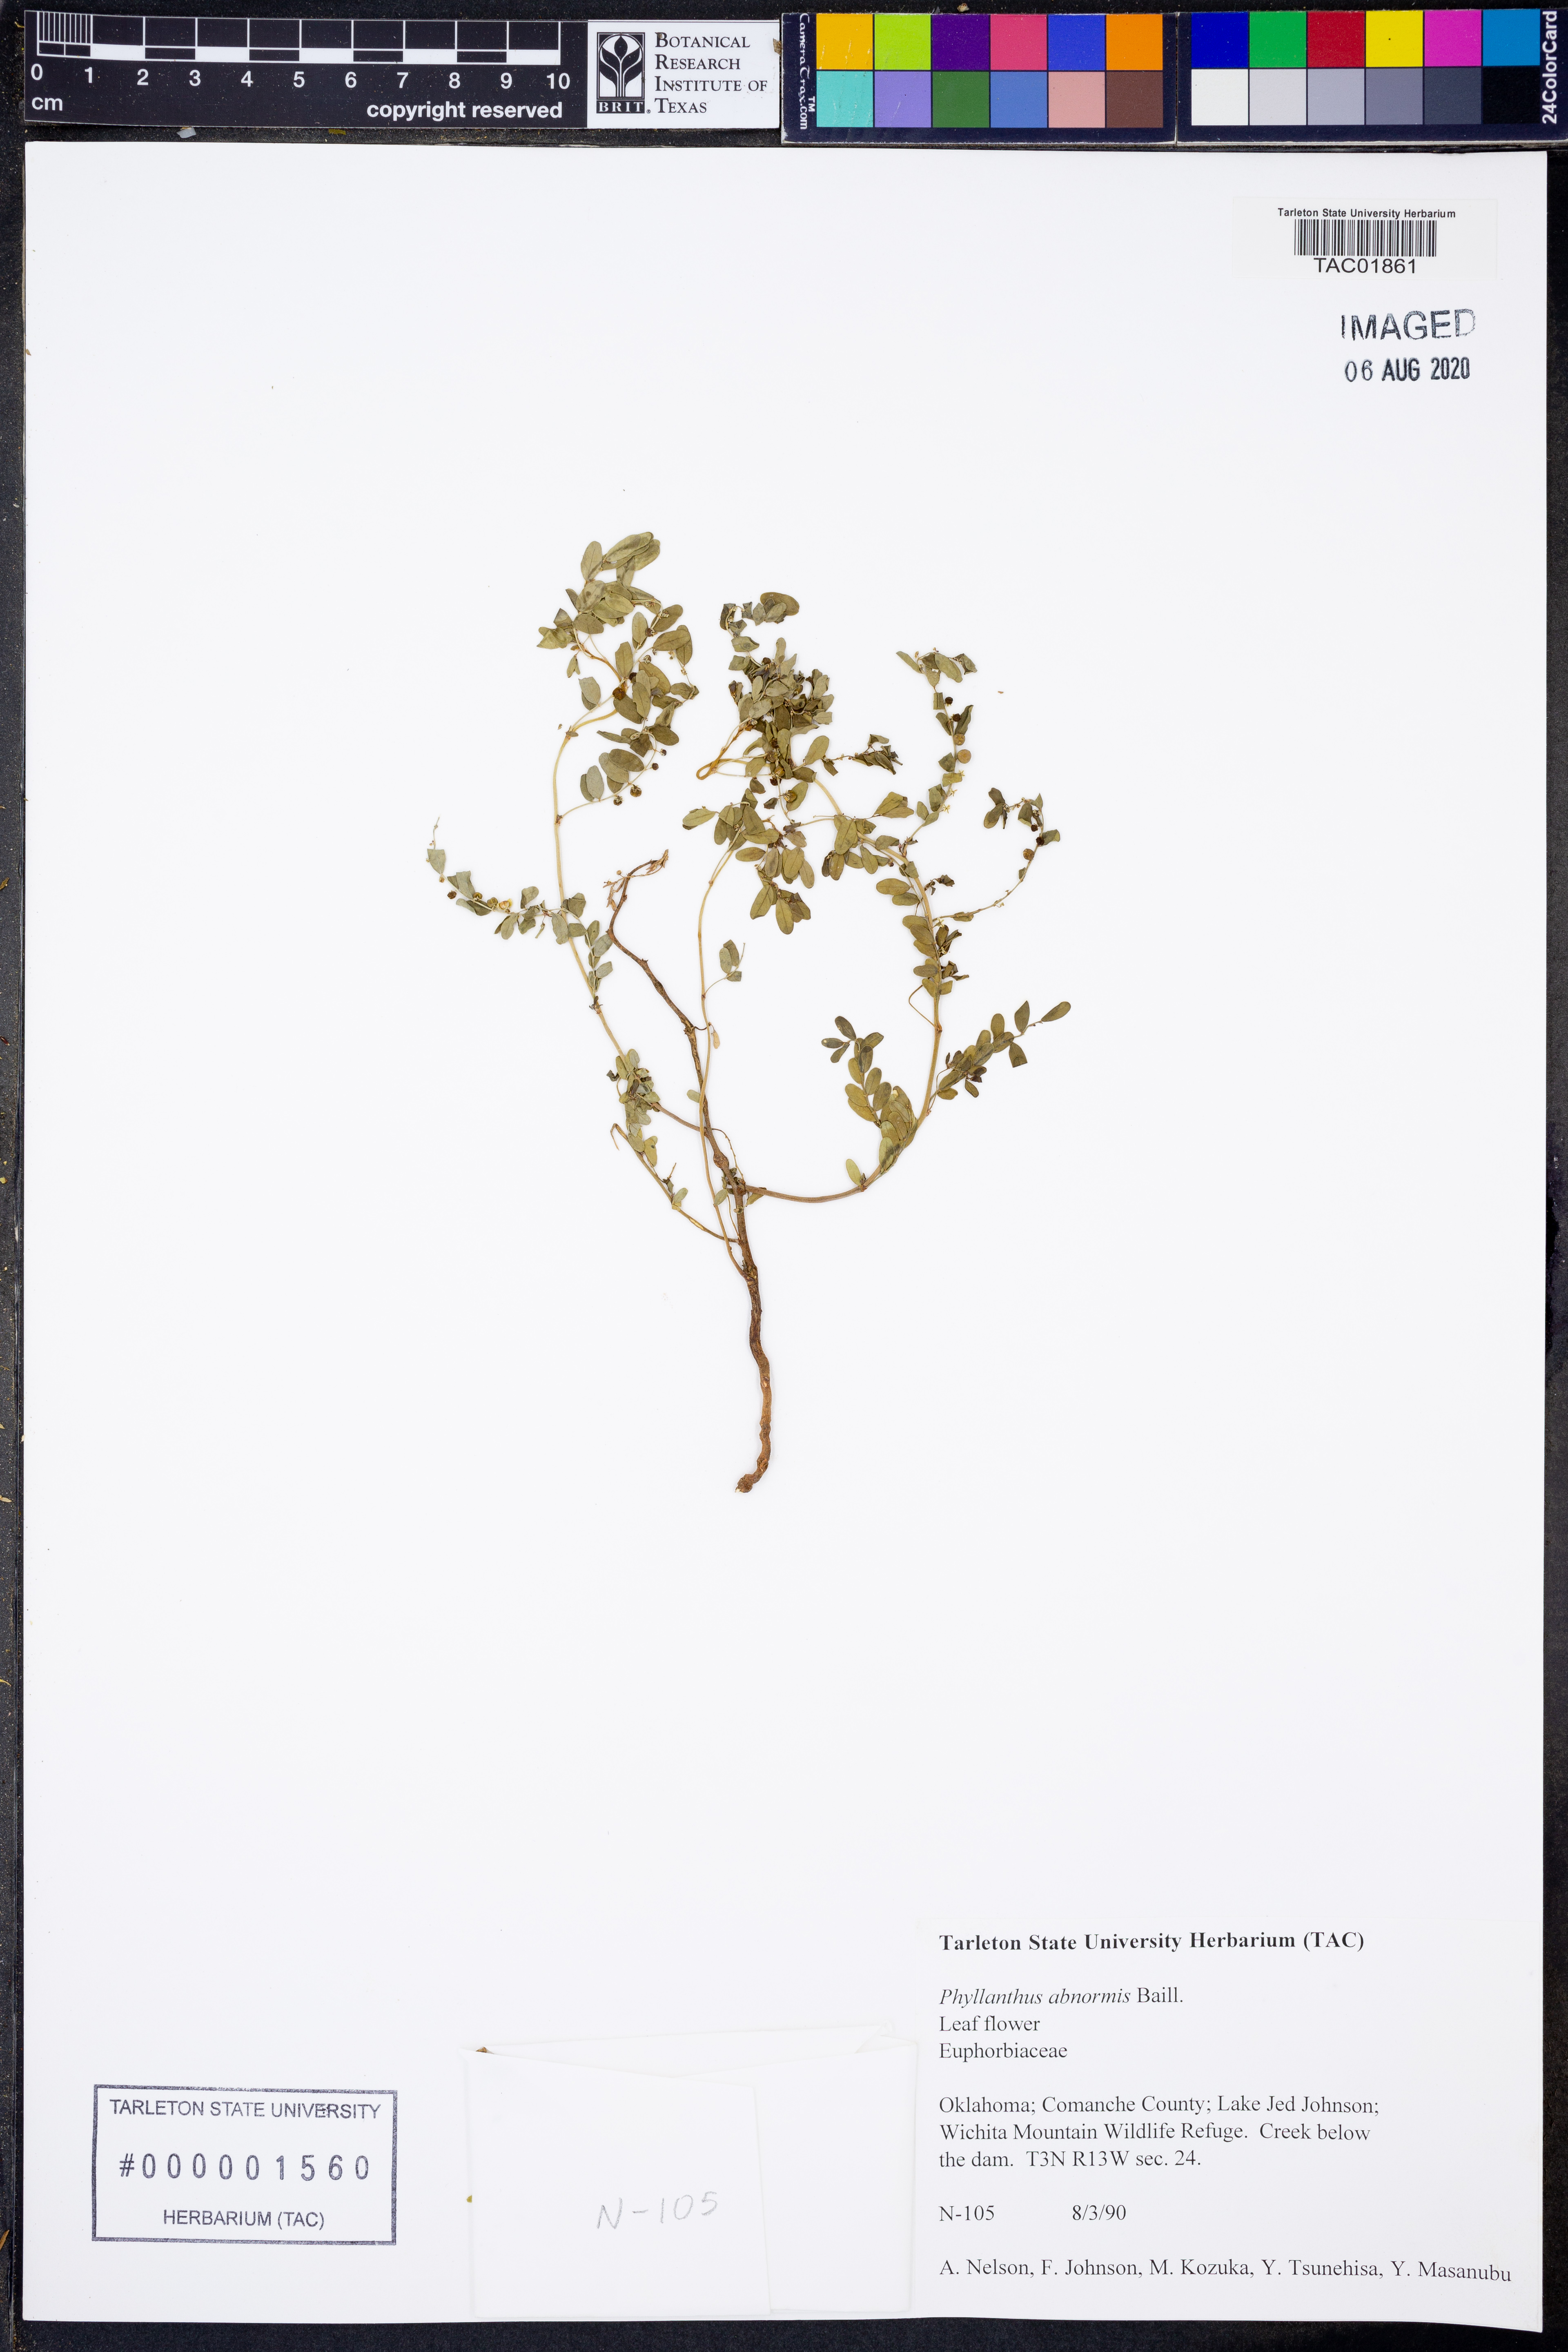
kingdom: Plantae
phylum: Tracheophyta
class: Magnoliopsida
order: Malpighiales
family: Phyllanthaceae
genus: Phyllanthus
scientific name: Phyllanthus abnormis
